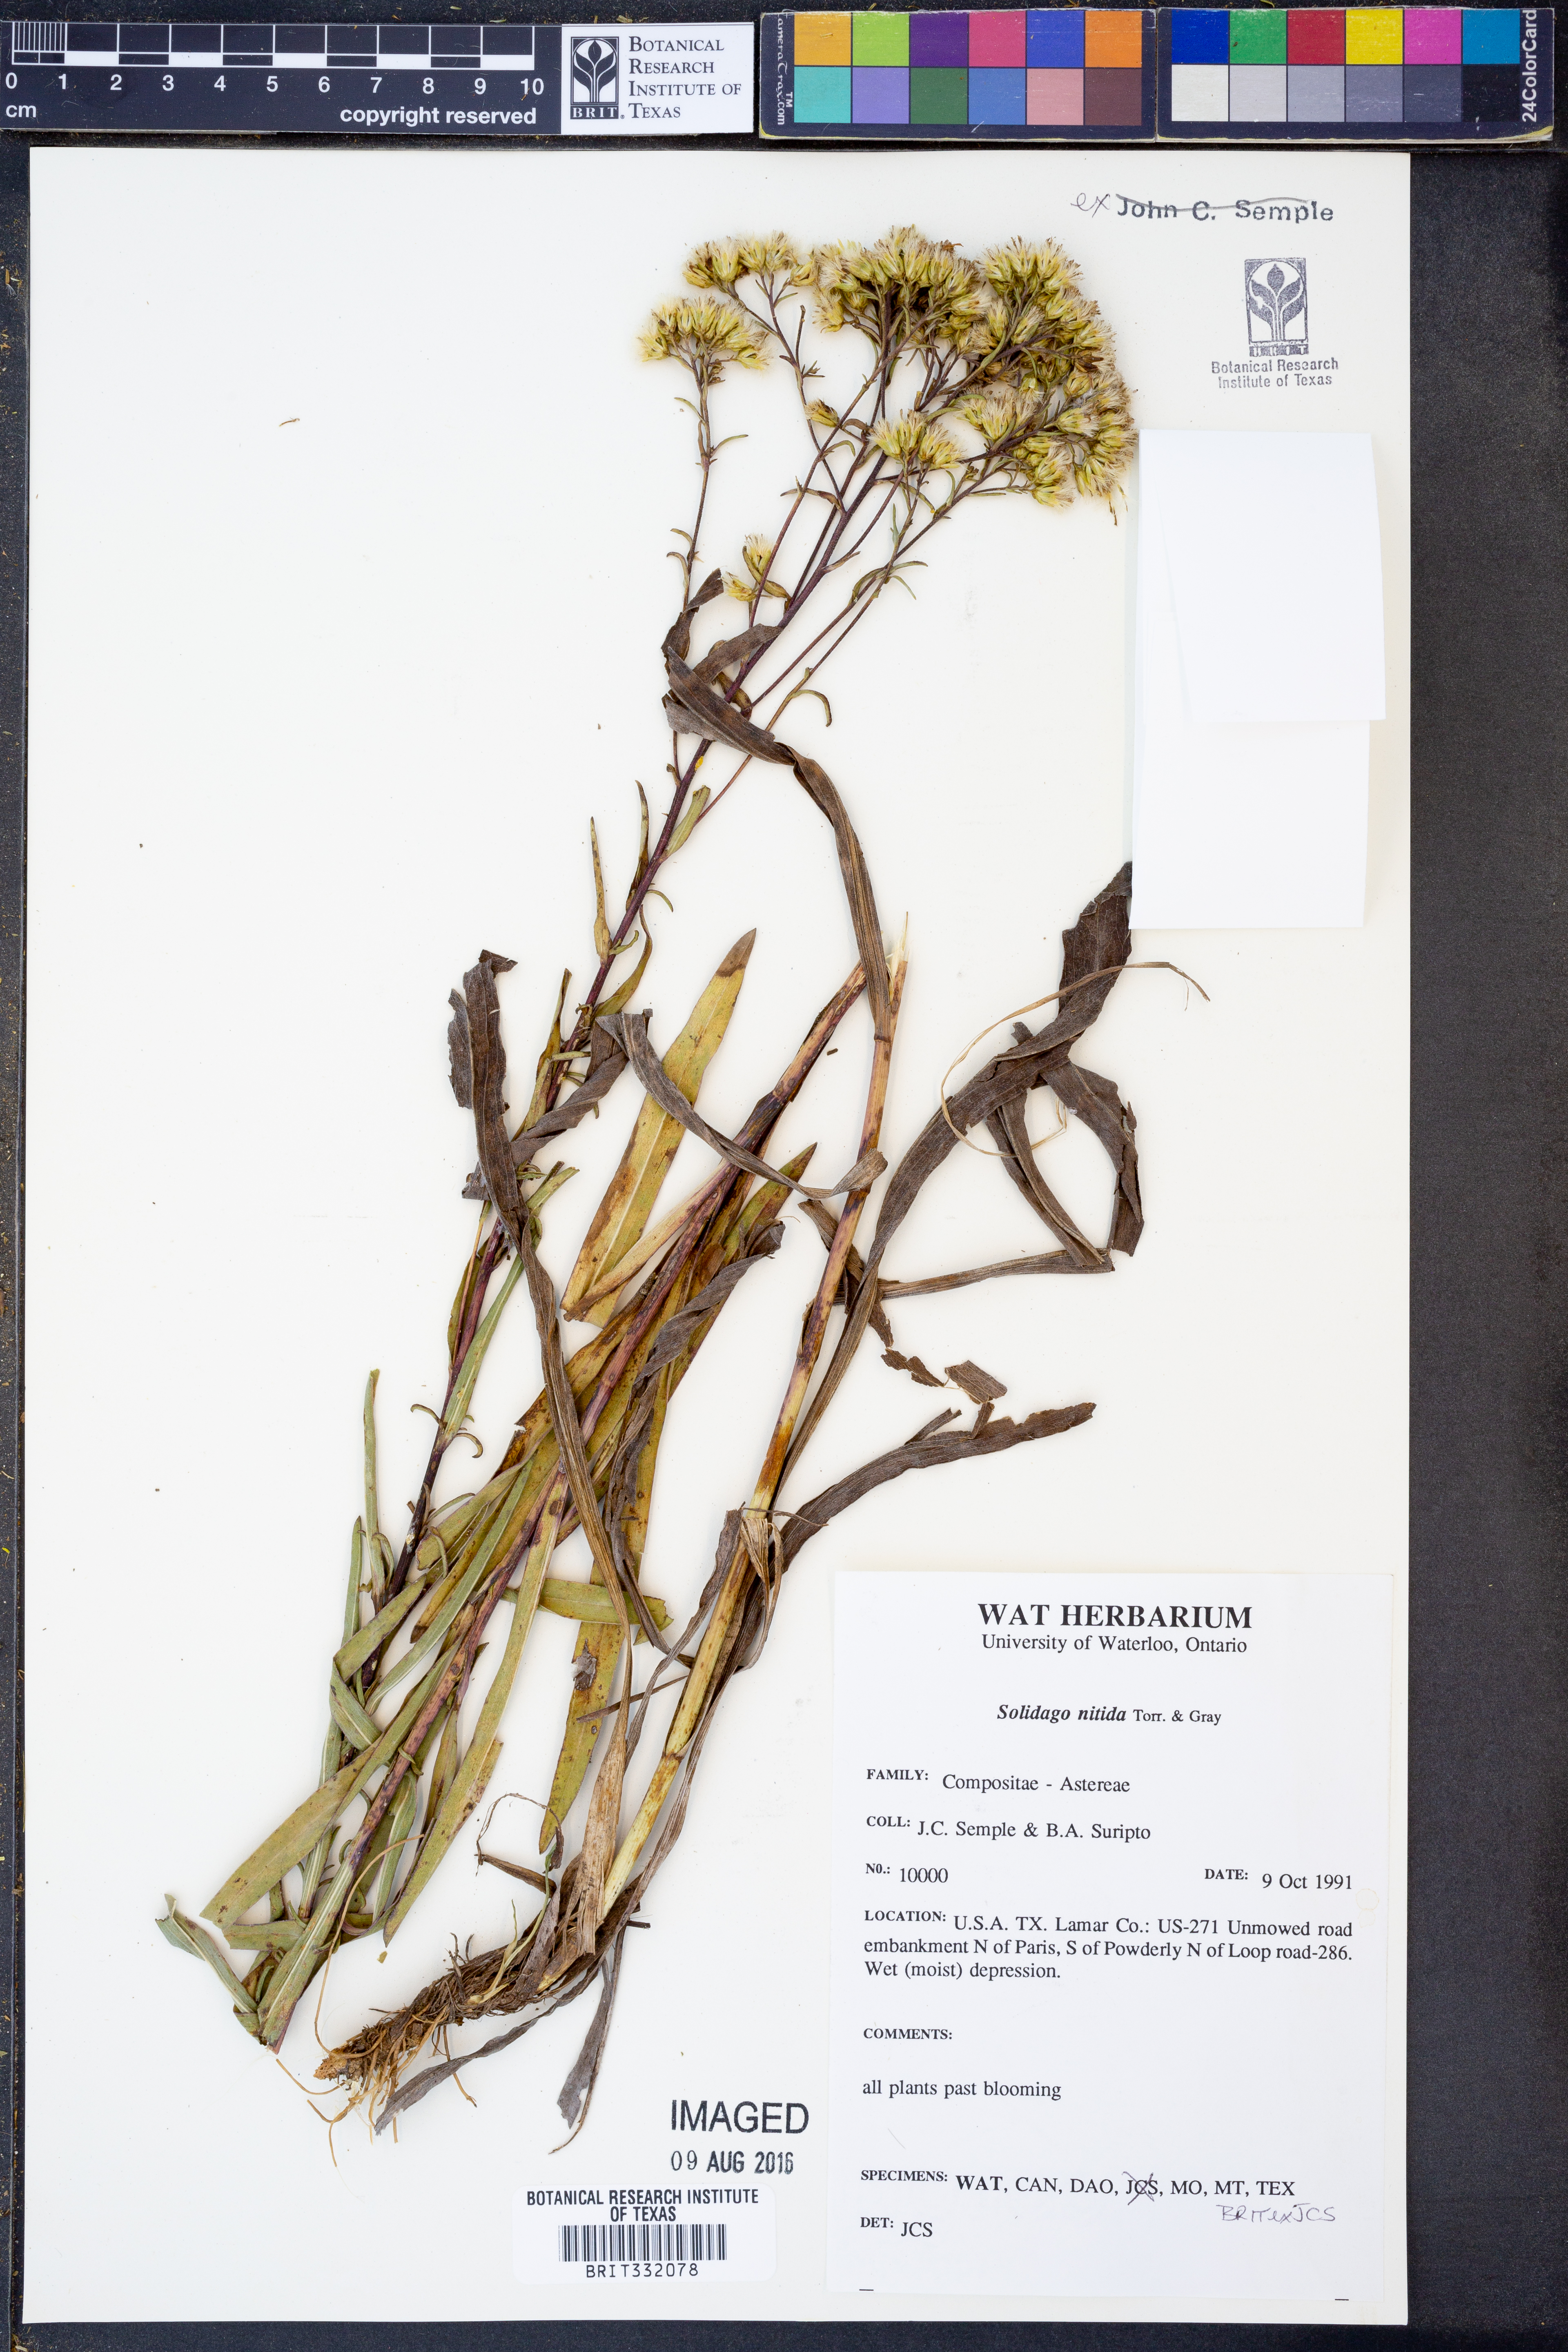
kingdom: Plantae
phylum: Tracheophyta
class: Magnoliopsida
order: Asterales
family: Asteraceae
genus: Solidago
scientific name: Solidago nitida
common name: Shiny goldenrod
